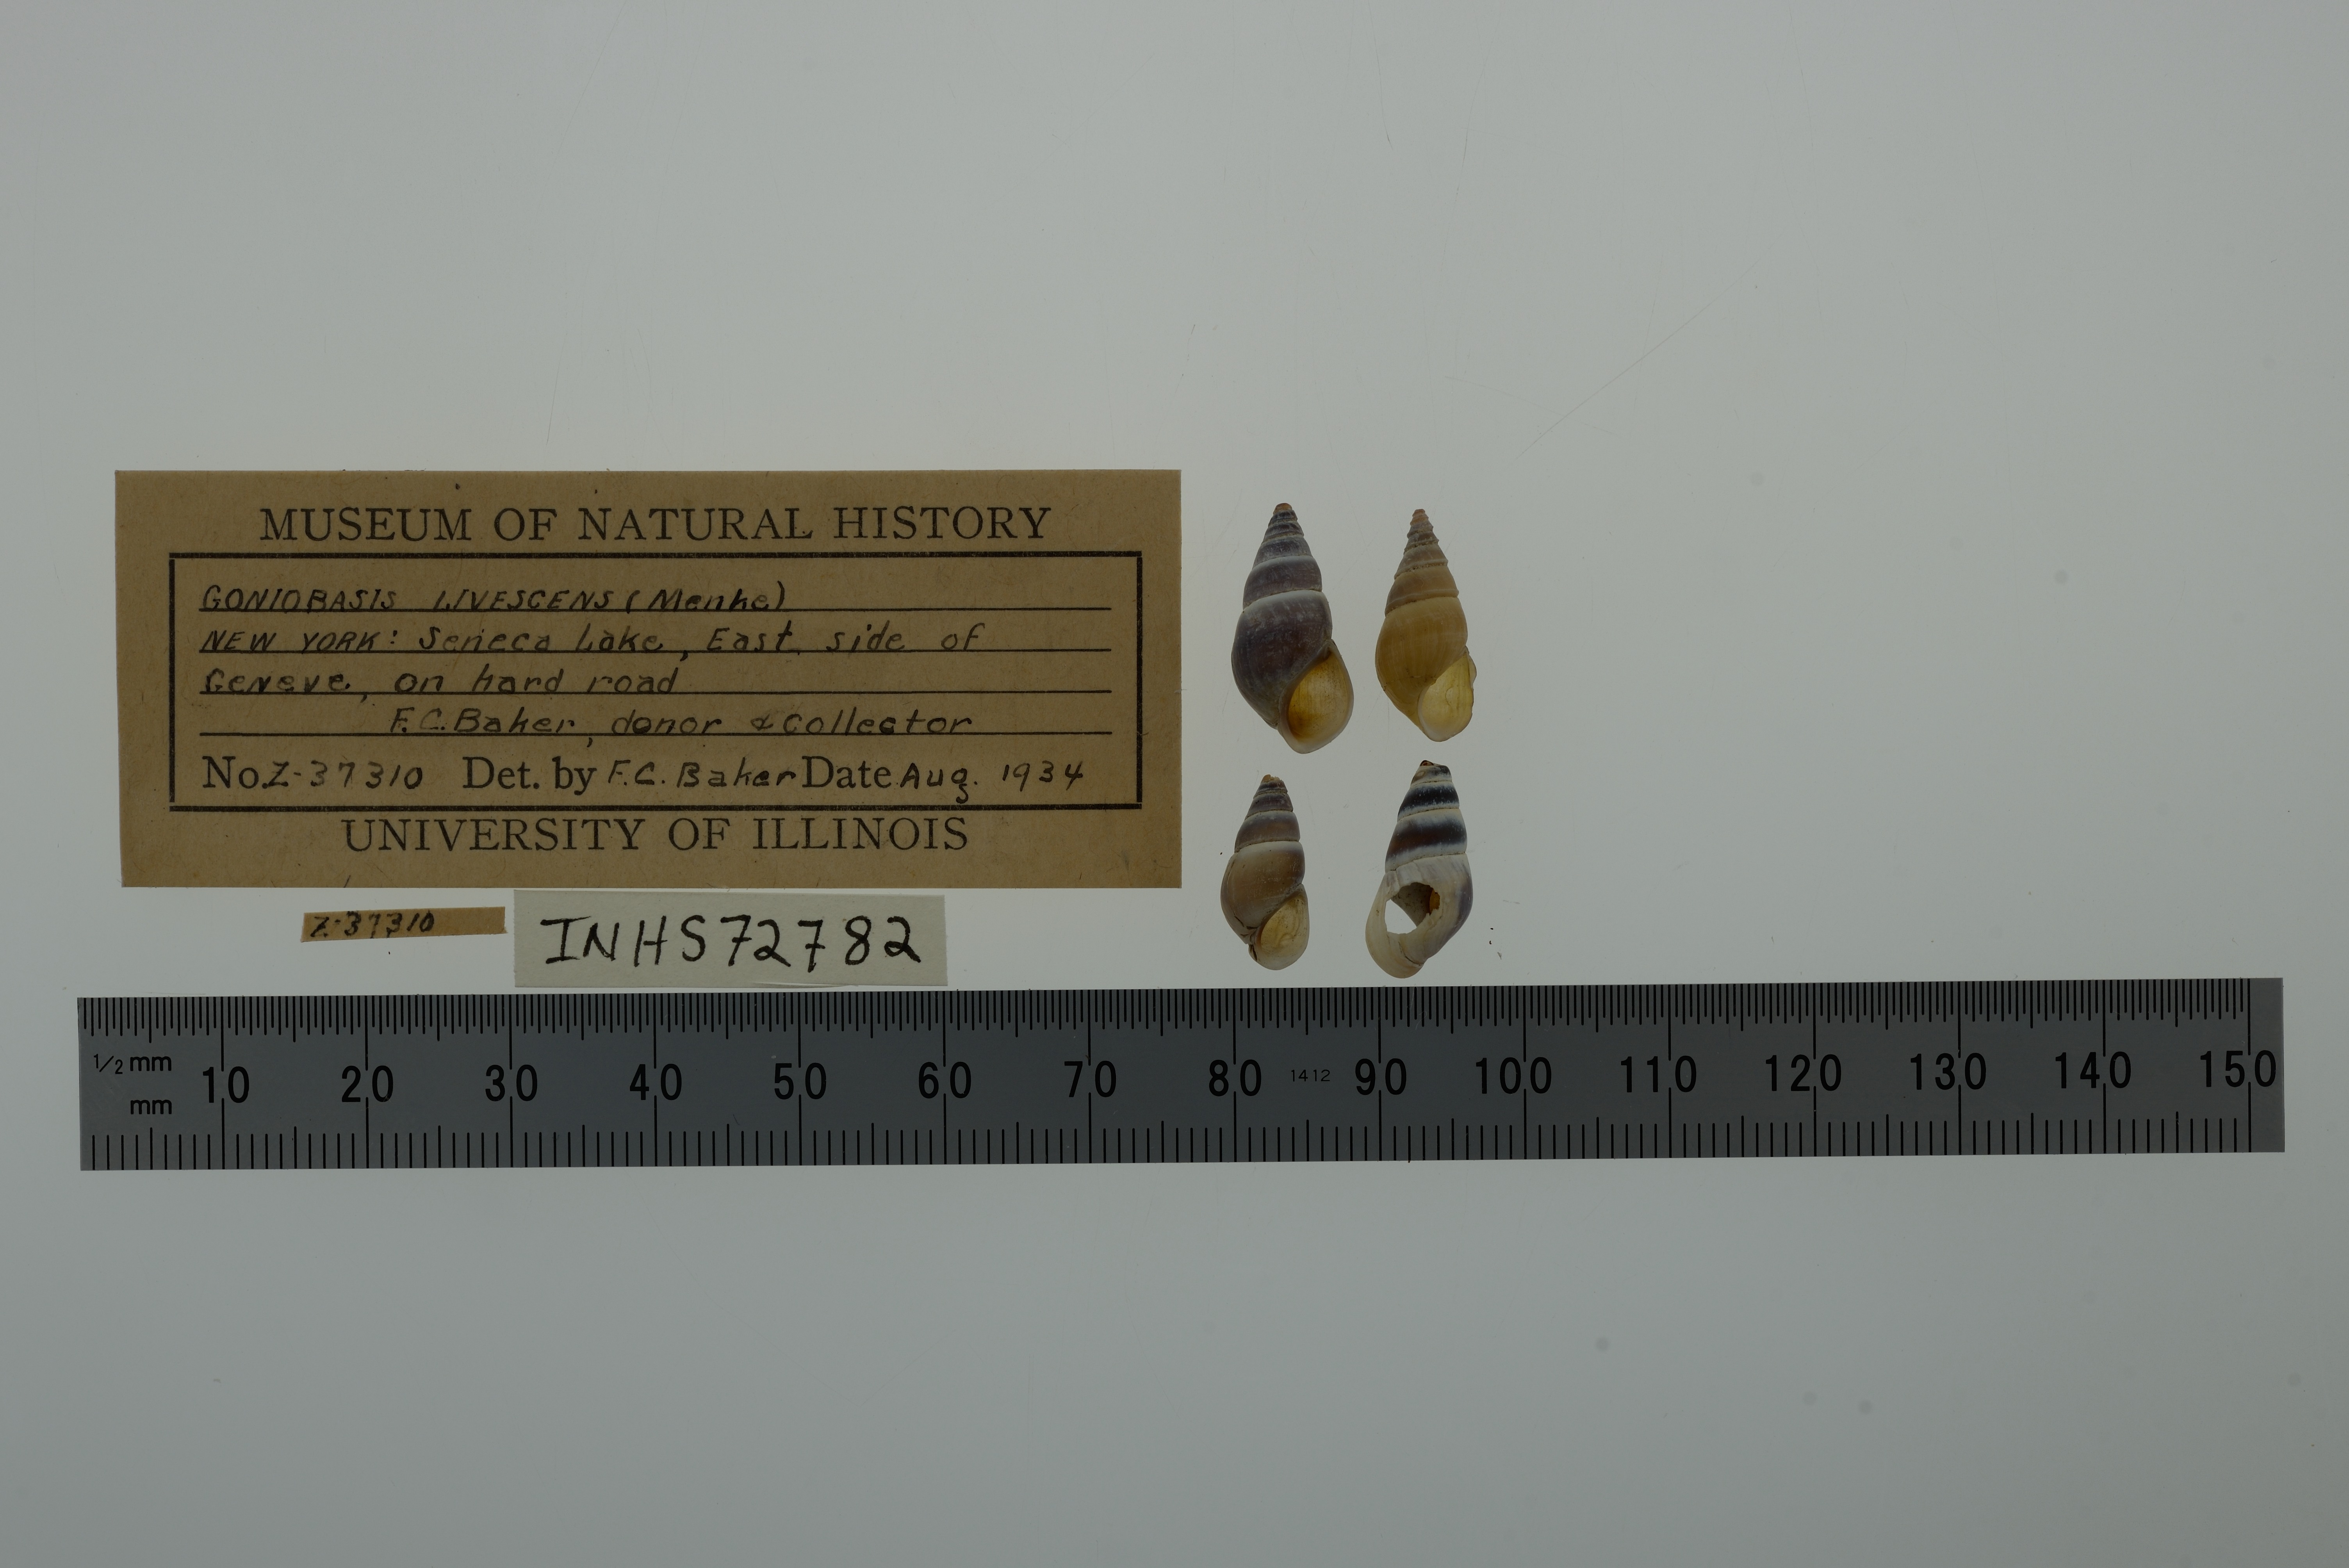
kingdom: Animalia
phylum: Mollusca
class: Gastropoda
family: Pleuroceridae
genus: Elimia
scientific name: Elimia livescens
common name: Liver elimia
